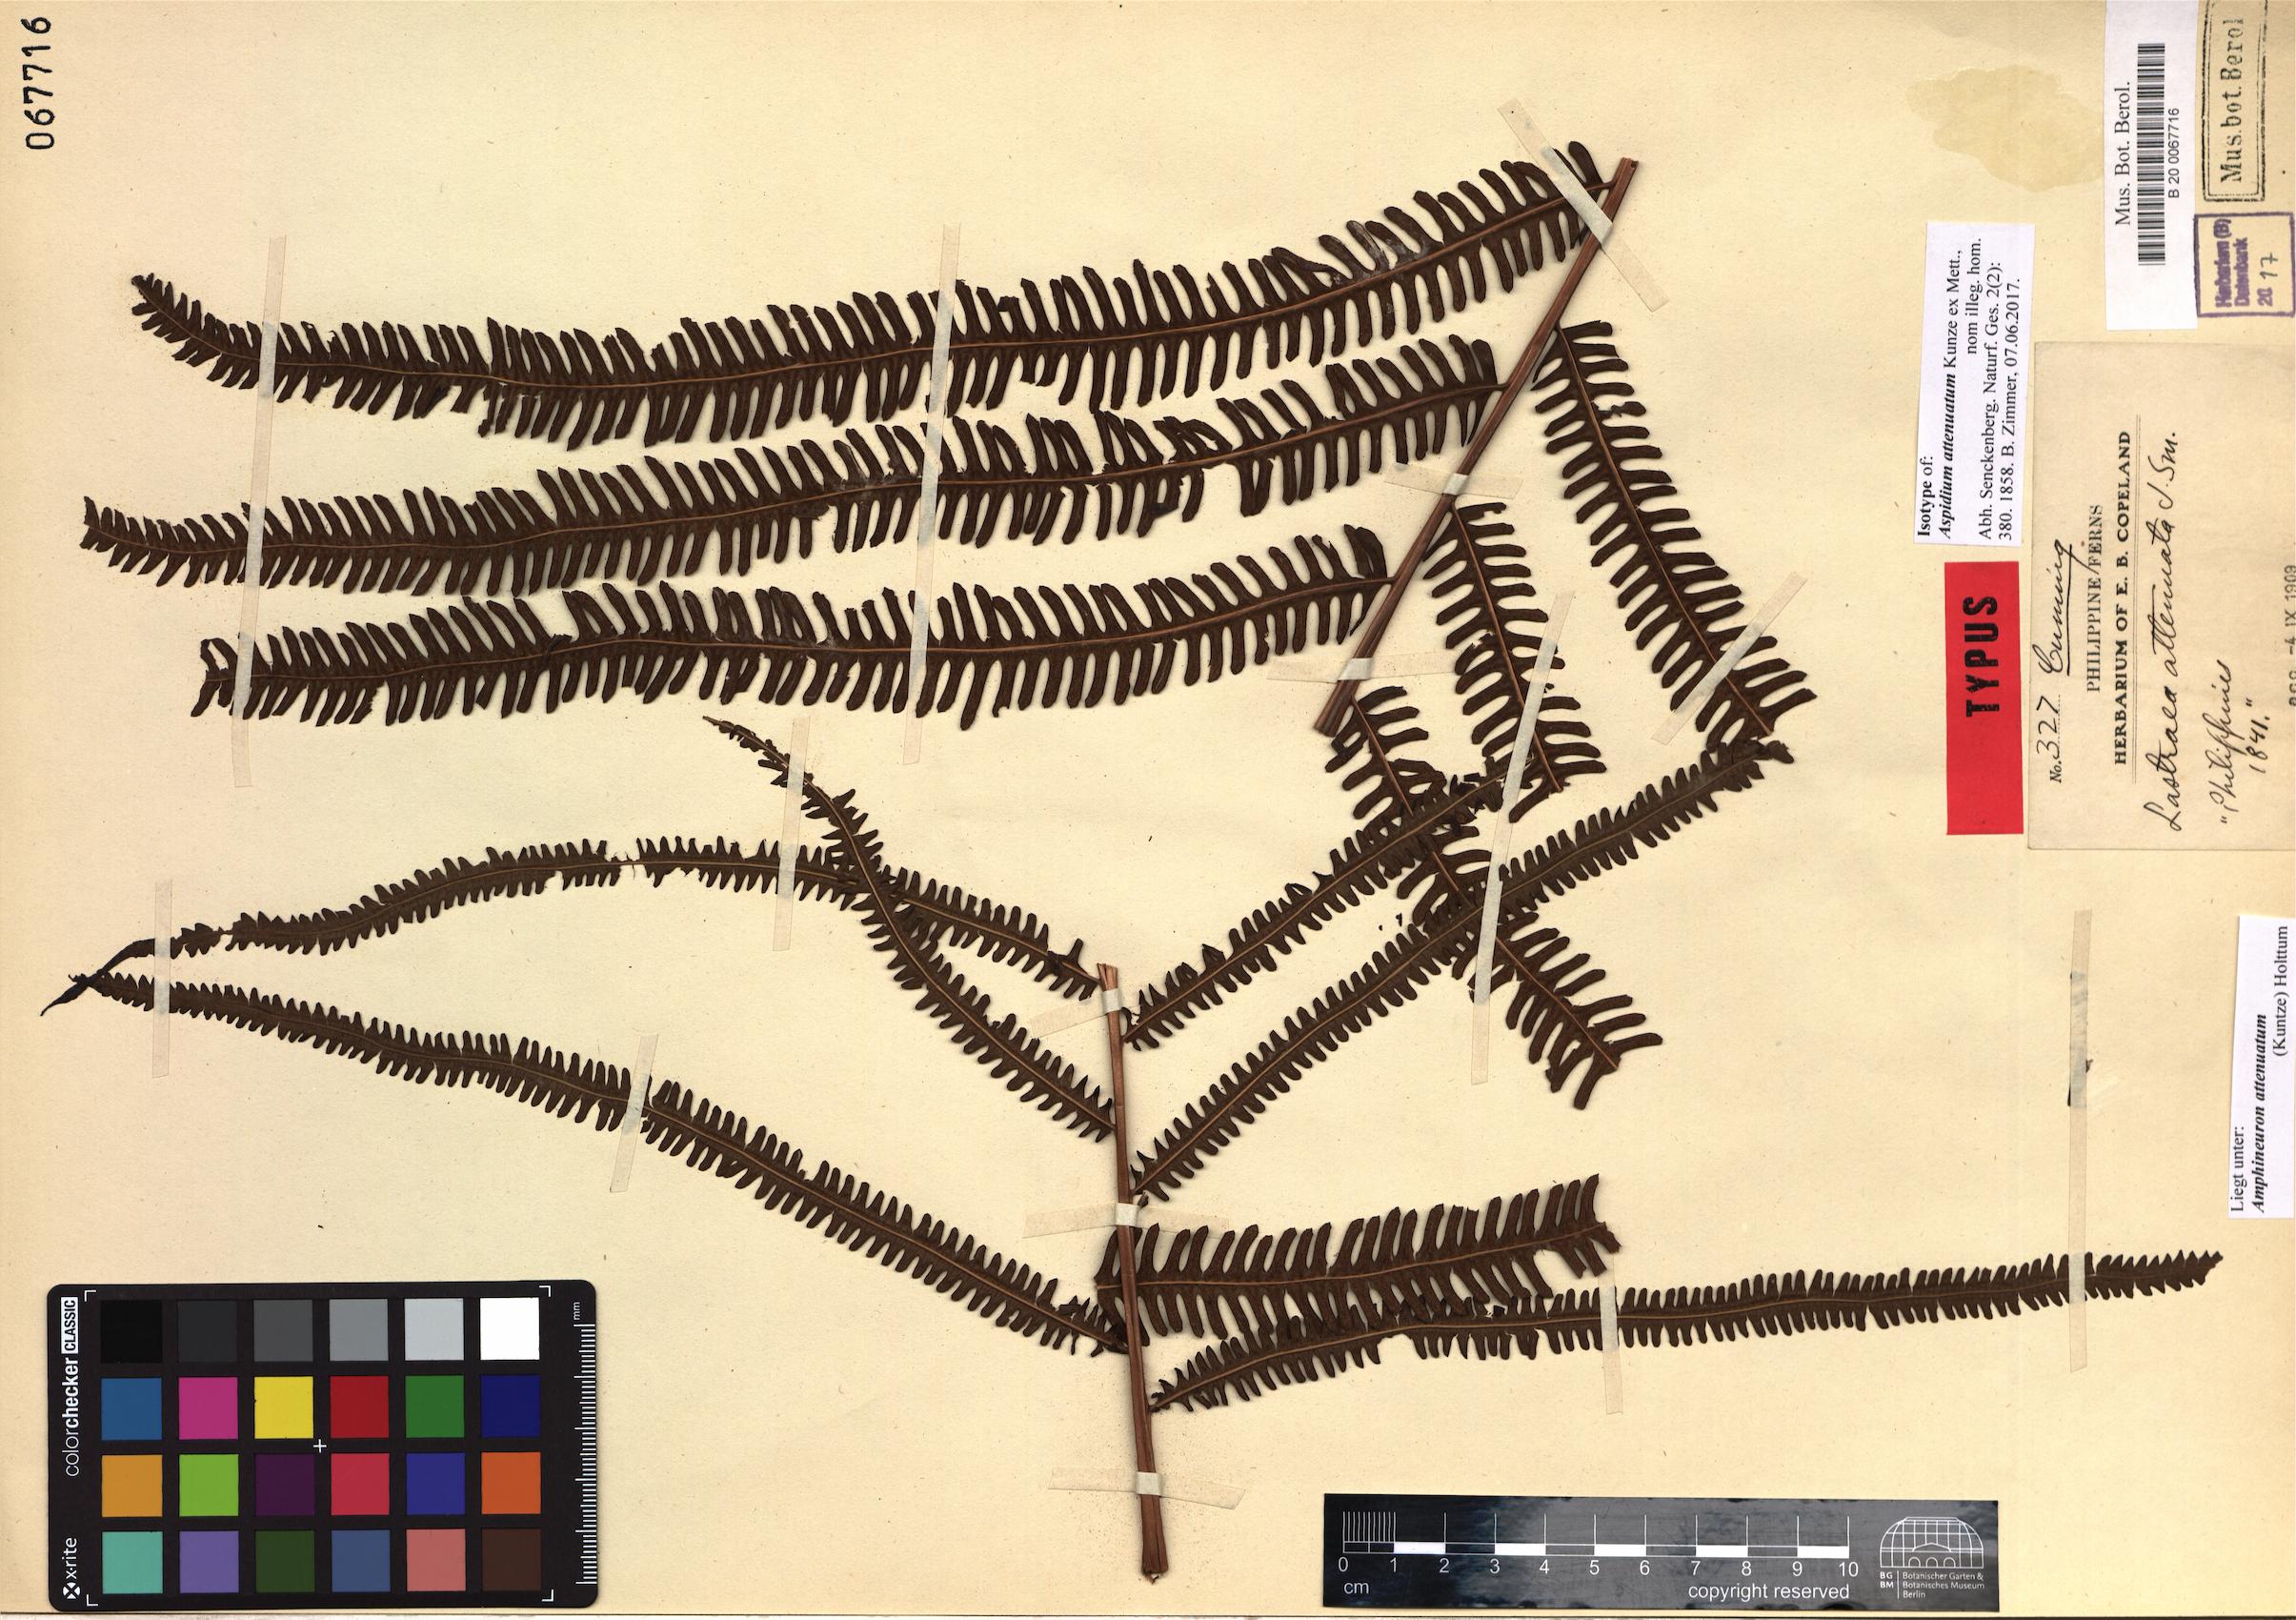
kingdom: Plantae
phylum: Tracheophyta
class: Polypodiopsida
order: Polypodiales
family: Thelypteridaceae
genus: Mesopteris
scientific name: Mesopteris attenuata
